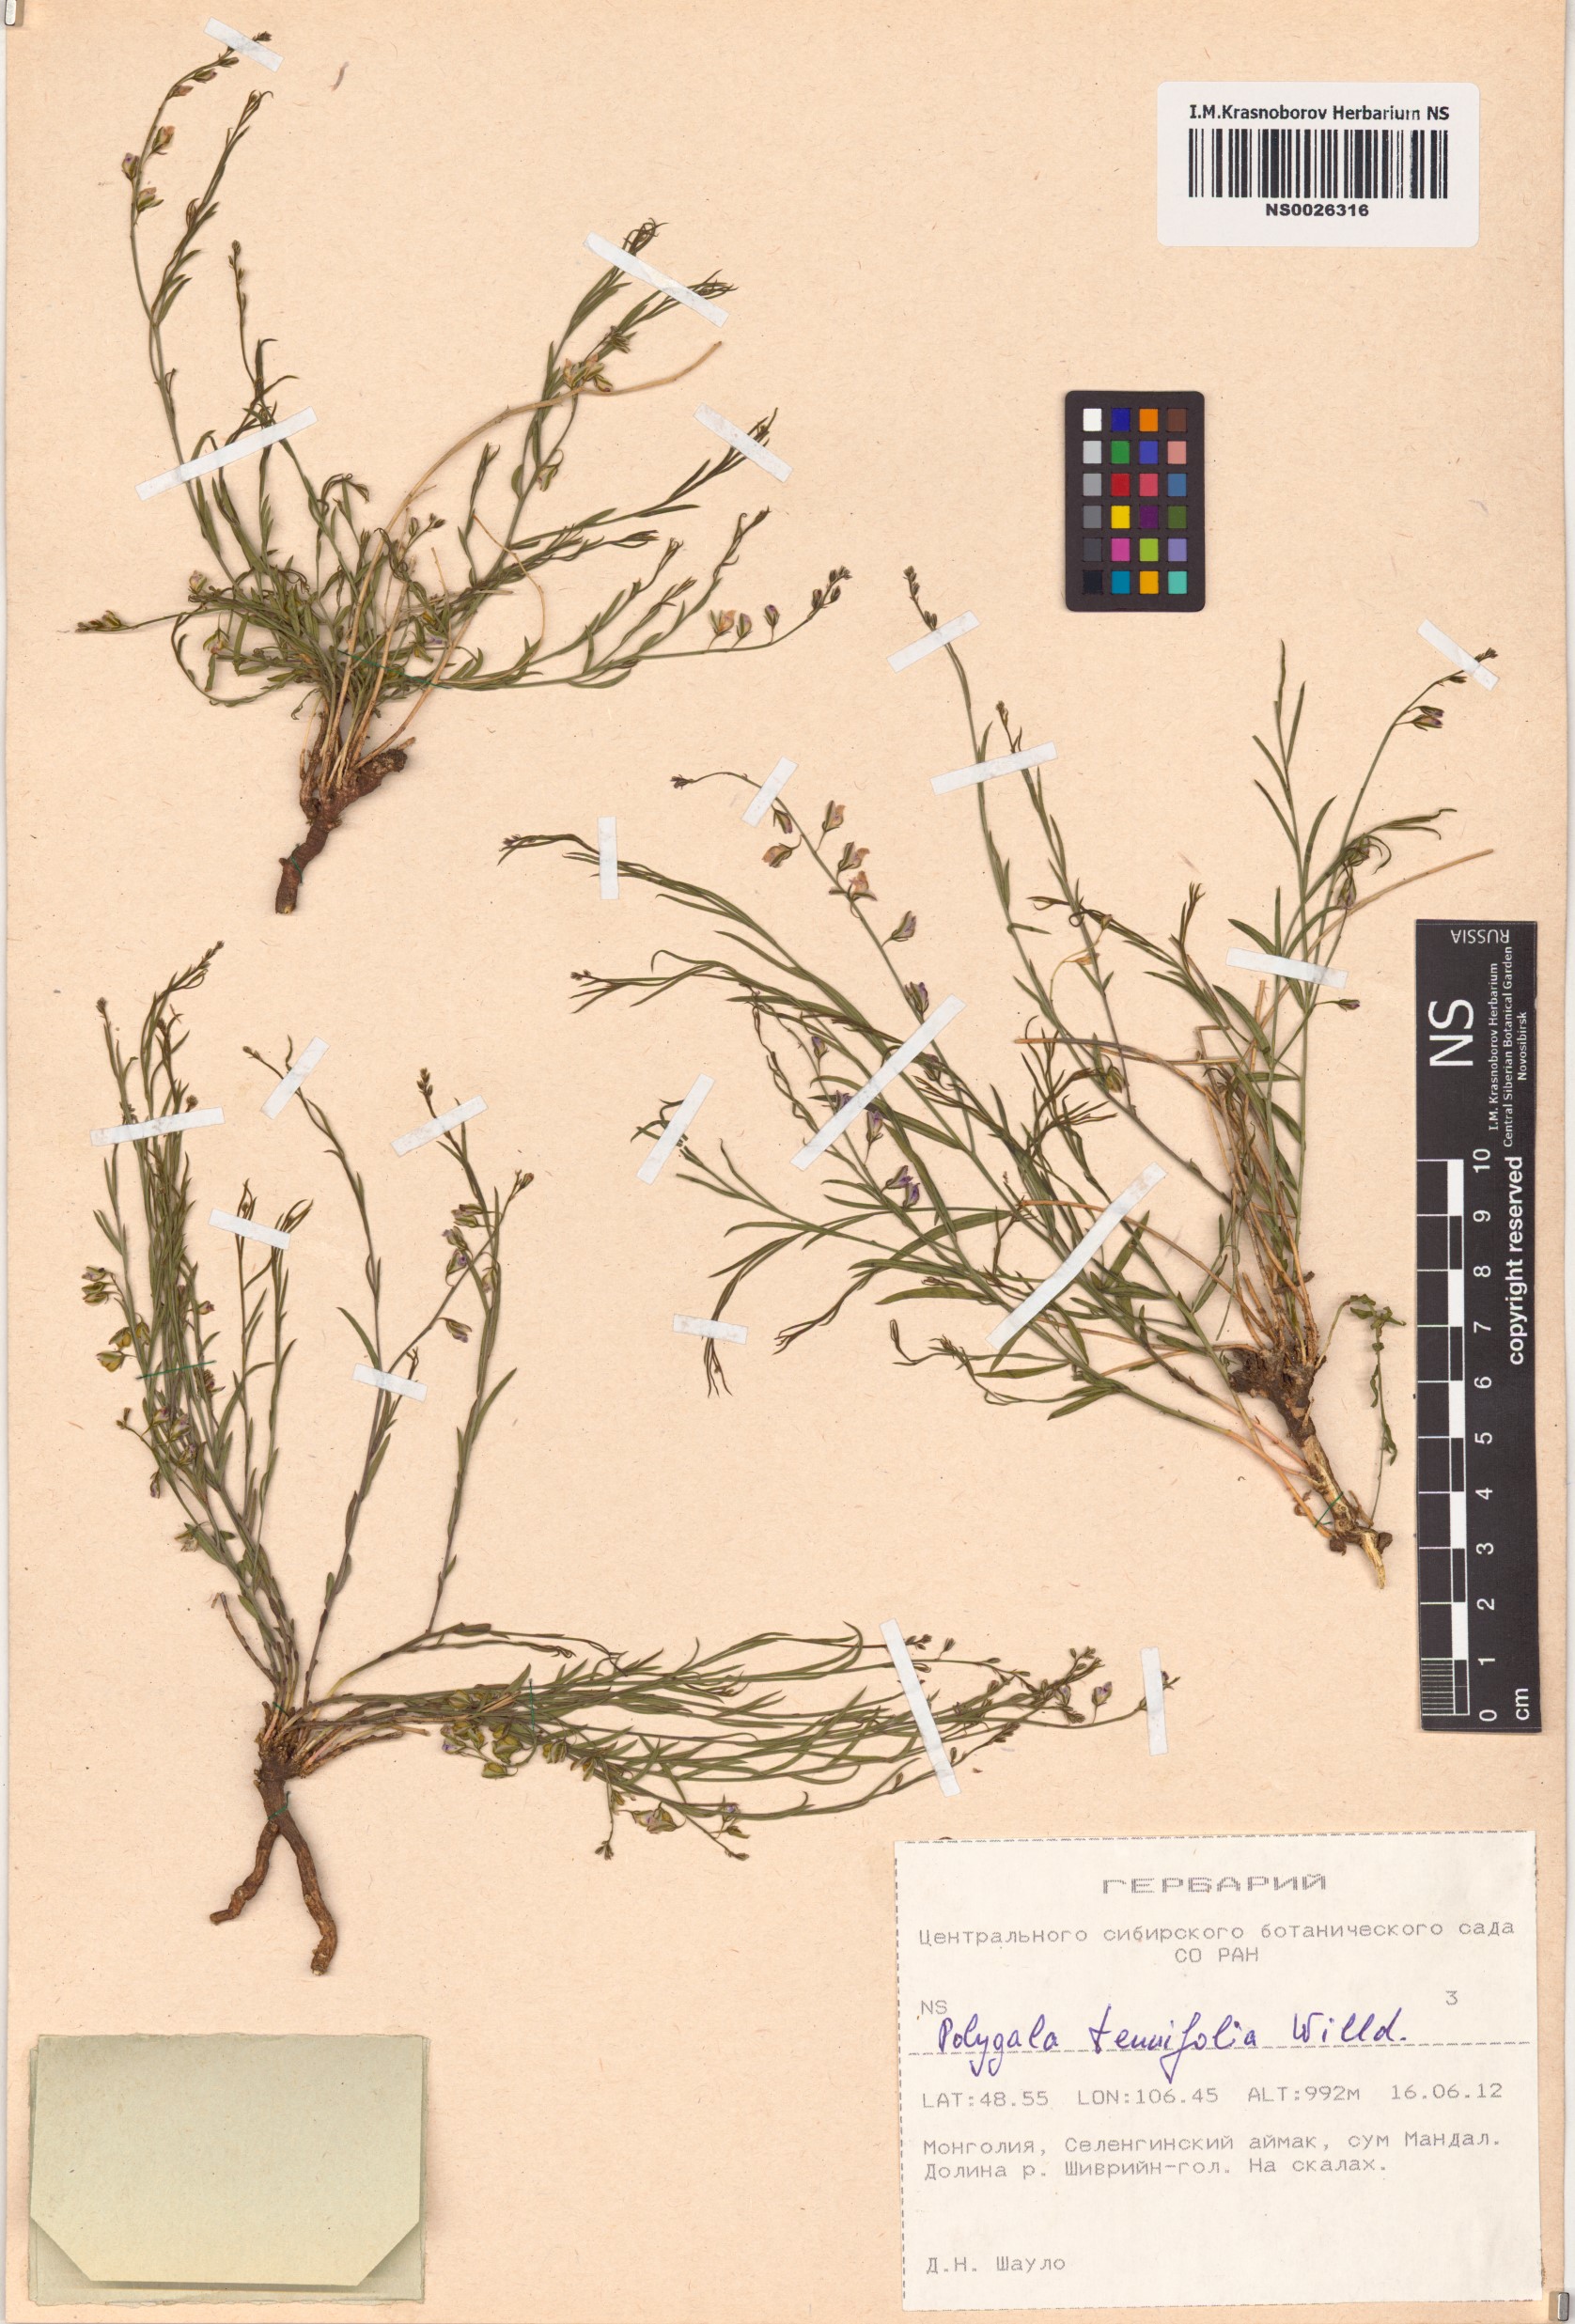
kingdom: Plantae
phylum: Tracheophyta
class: Magnoliopsida
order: Fabales
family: Polygalaceae
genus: Polygala
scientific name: Polygala tenuifolia
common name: Chinese senega-root
